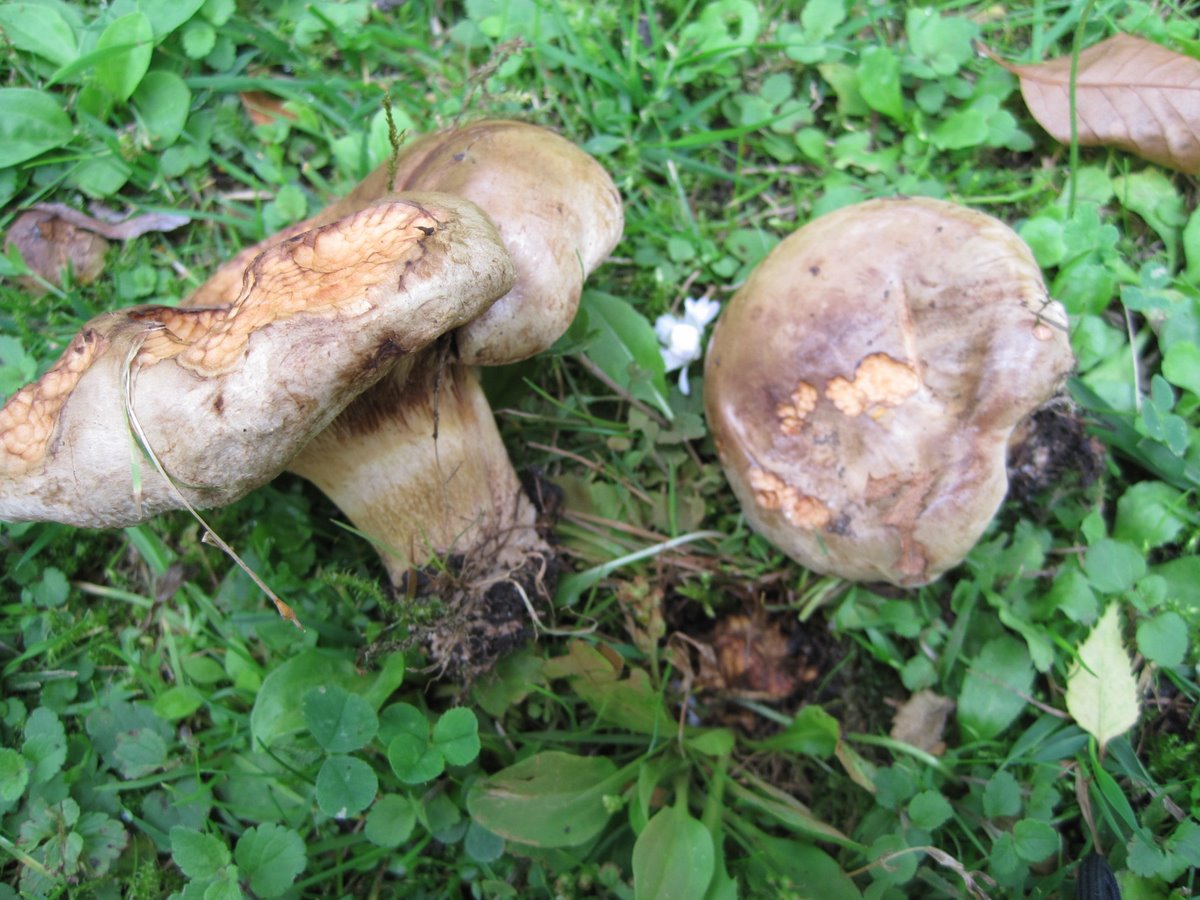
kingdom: Fungi
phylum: Basidiomycota
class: Agaricomycetes
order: Boletales
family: Paxillaceae
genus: Paxillus
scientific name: Paxillus
